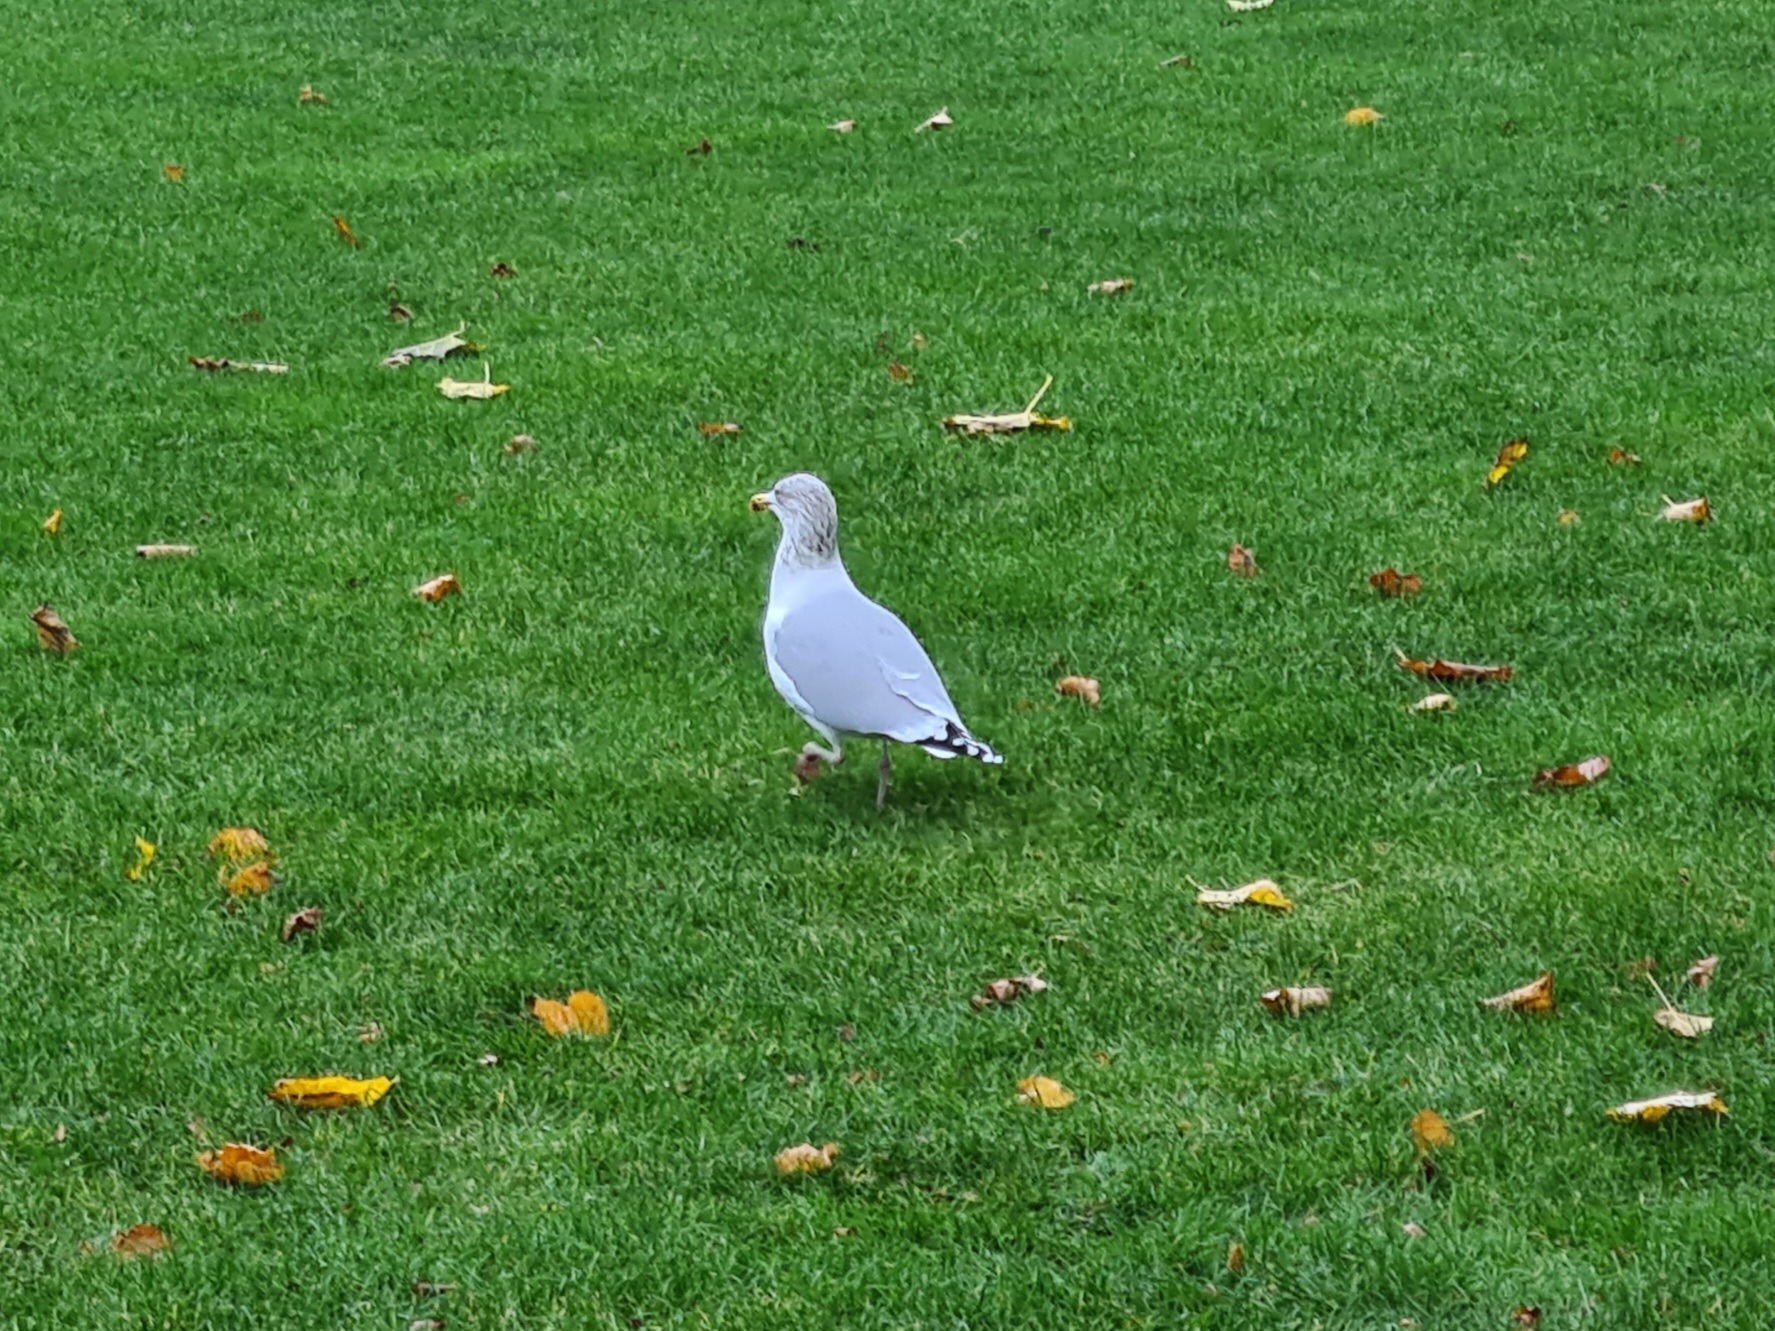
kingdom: Animalia
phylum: Chordata
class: Aves
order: Charadriiformes
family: Laridae
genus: Larus
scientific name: Larus argentatus
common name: Sølvmåge
